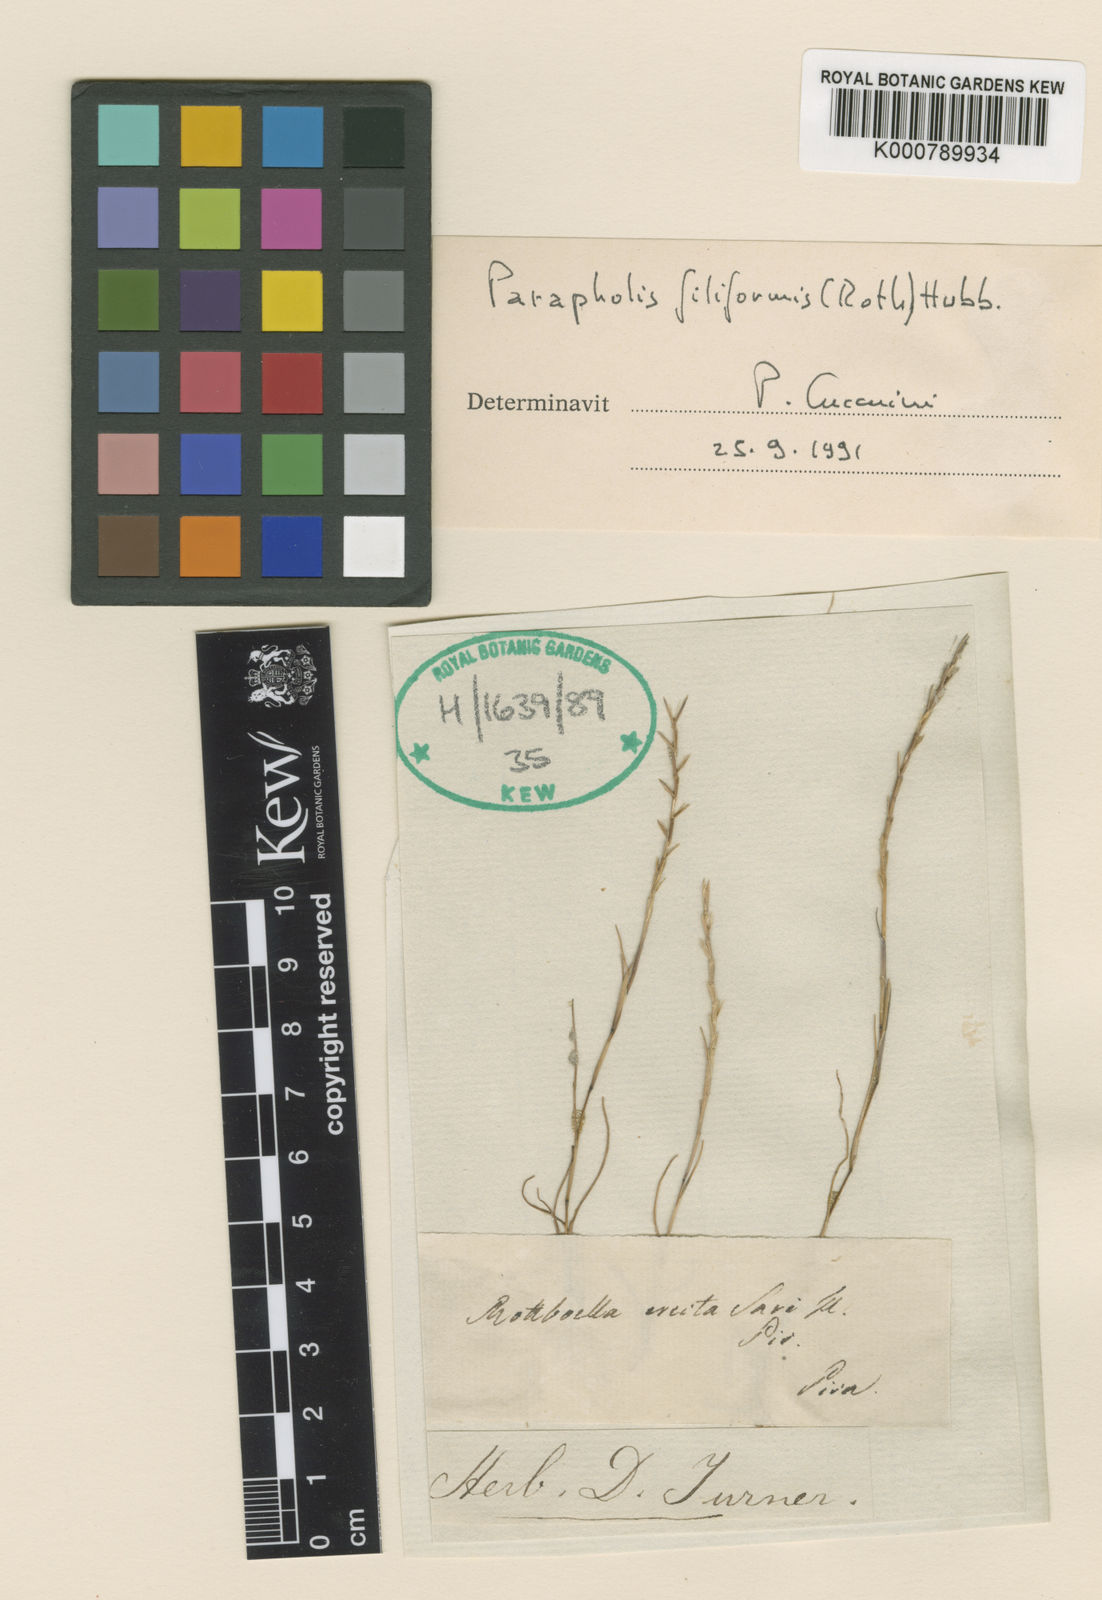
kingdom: Plantae
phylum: Tracheophyta
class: Liliopsida
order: Poales
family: Poaceae
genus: Parapholis
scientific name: Parapholis filiformis
